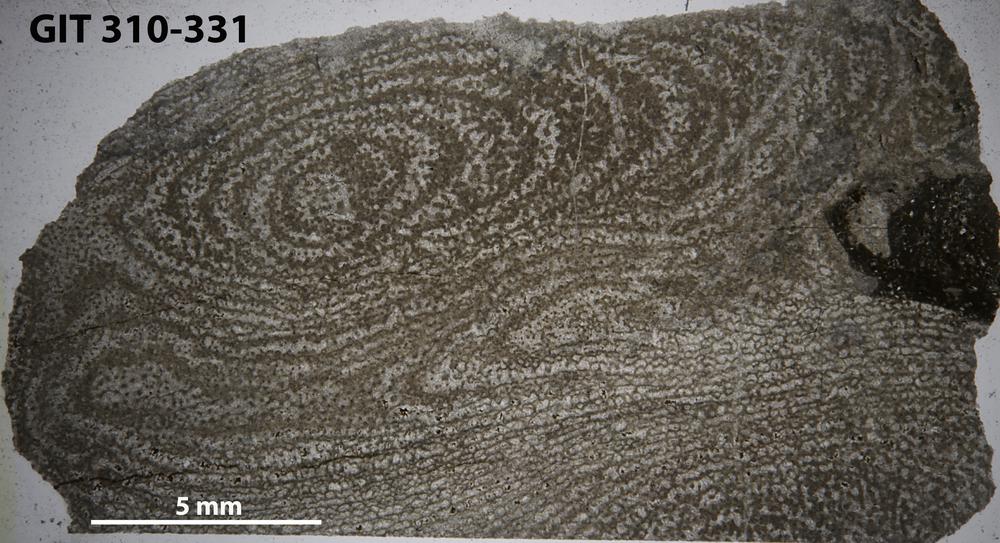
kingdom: Animalia
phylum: Porifera
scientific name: Porifera
